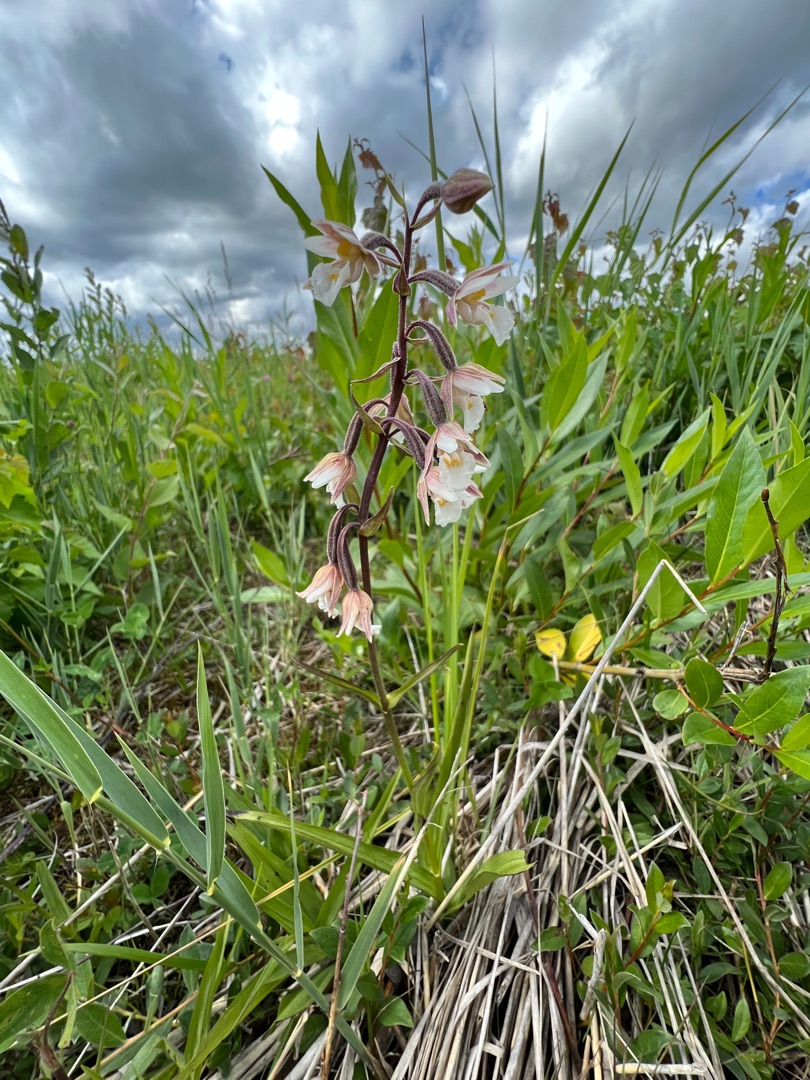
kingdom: Plantae
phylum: Tracheophyta
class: Liliopsida
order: Asparagales
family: Orchidaceae
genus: Epipactis
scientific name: Epipactis palustris
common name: Sump-hullæbe
